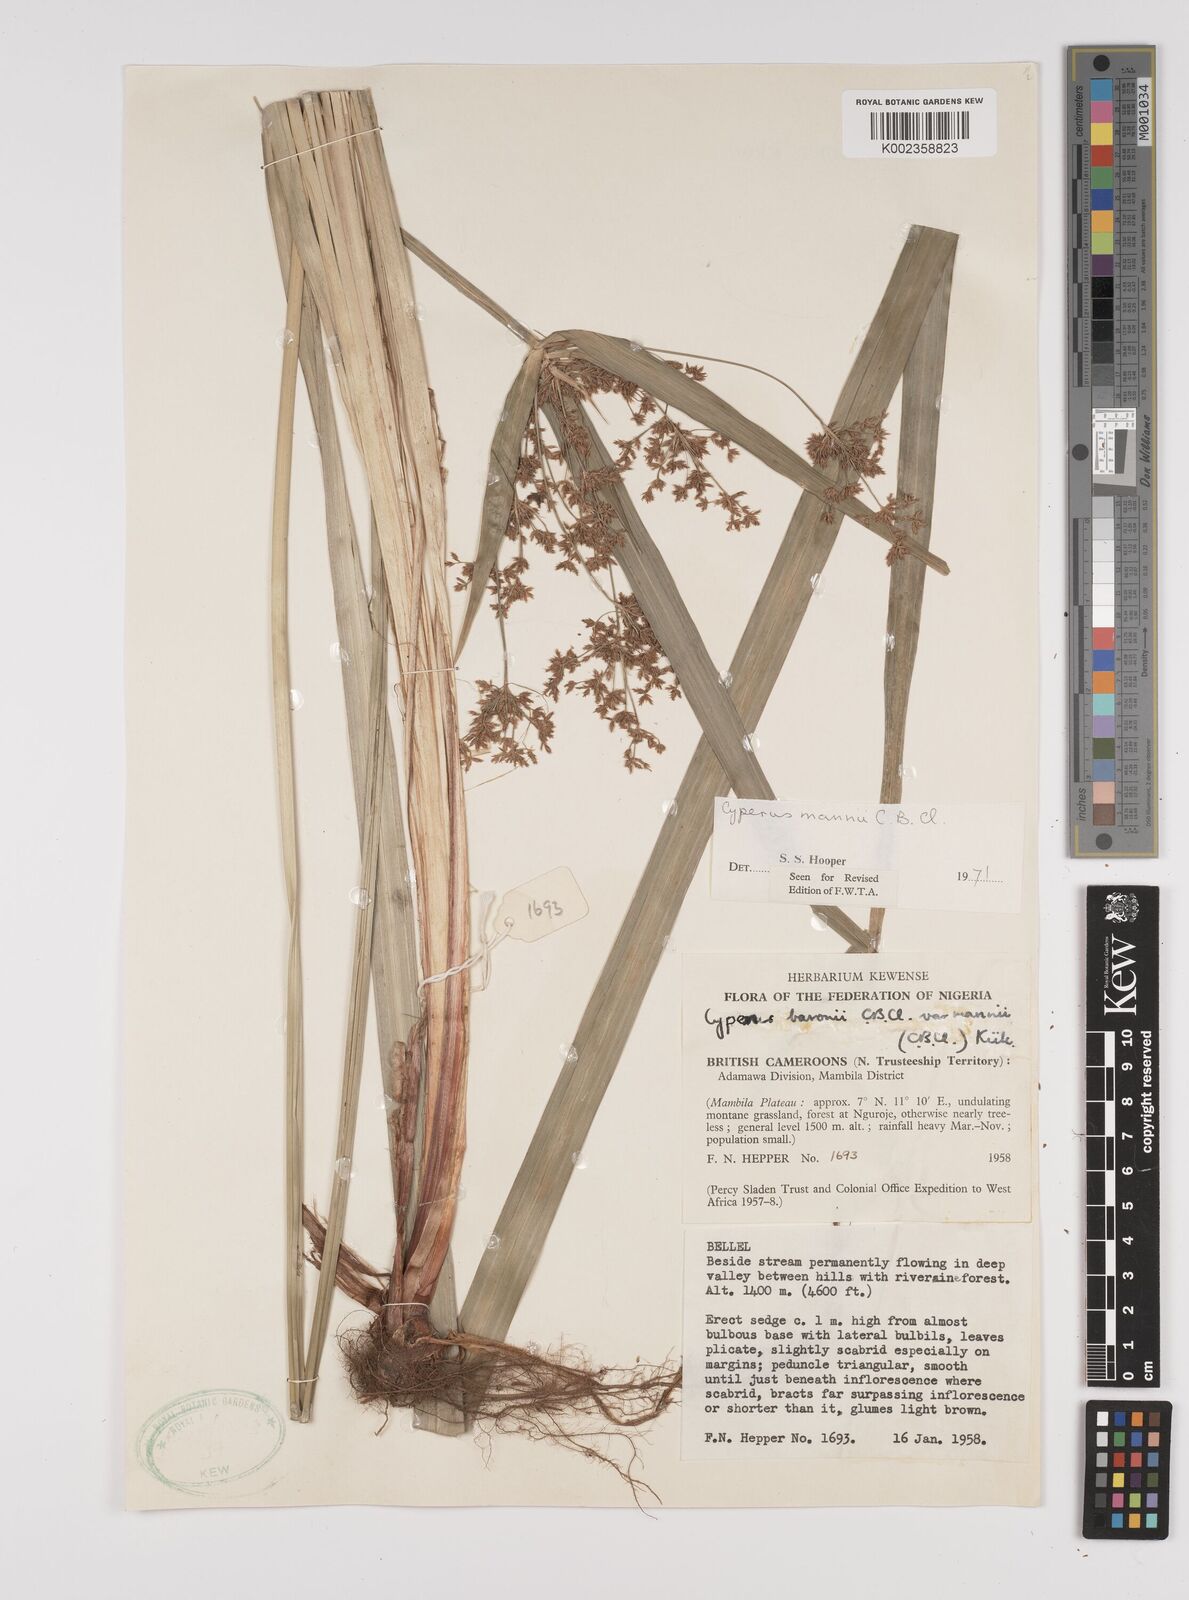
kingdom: Plantae
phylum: Tracheophyta
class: Liliopsida
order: Poales
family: Cyperaceae
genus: Cyperus
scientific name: Cyperus baronii
